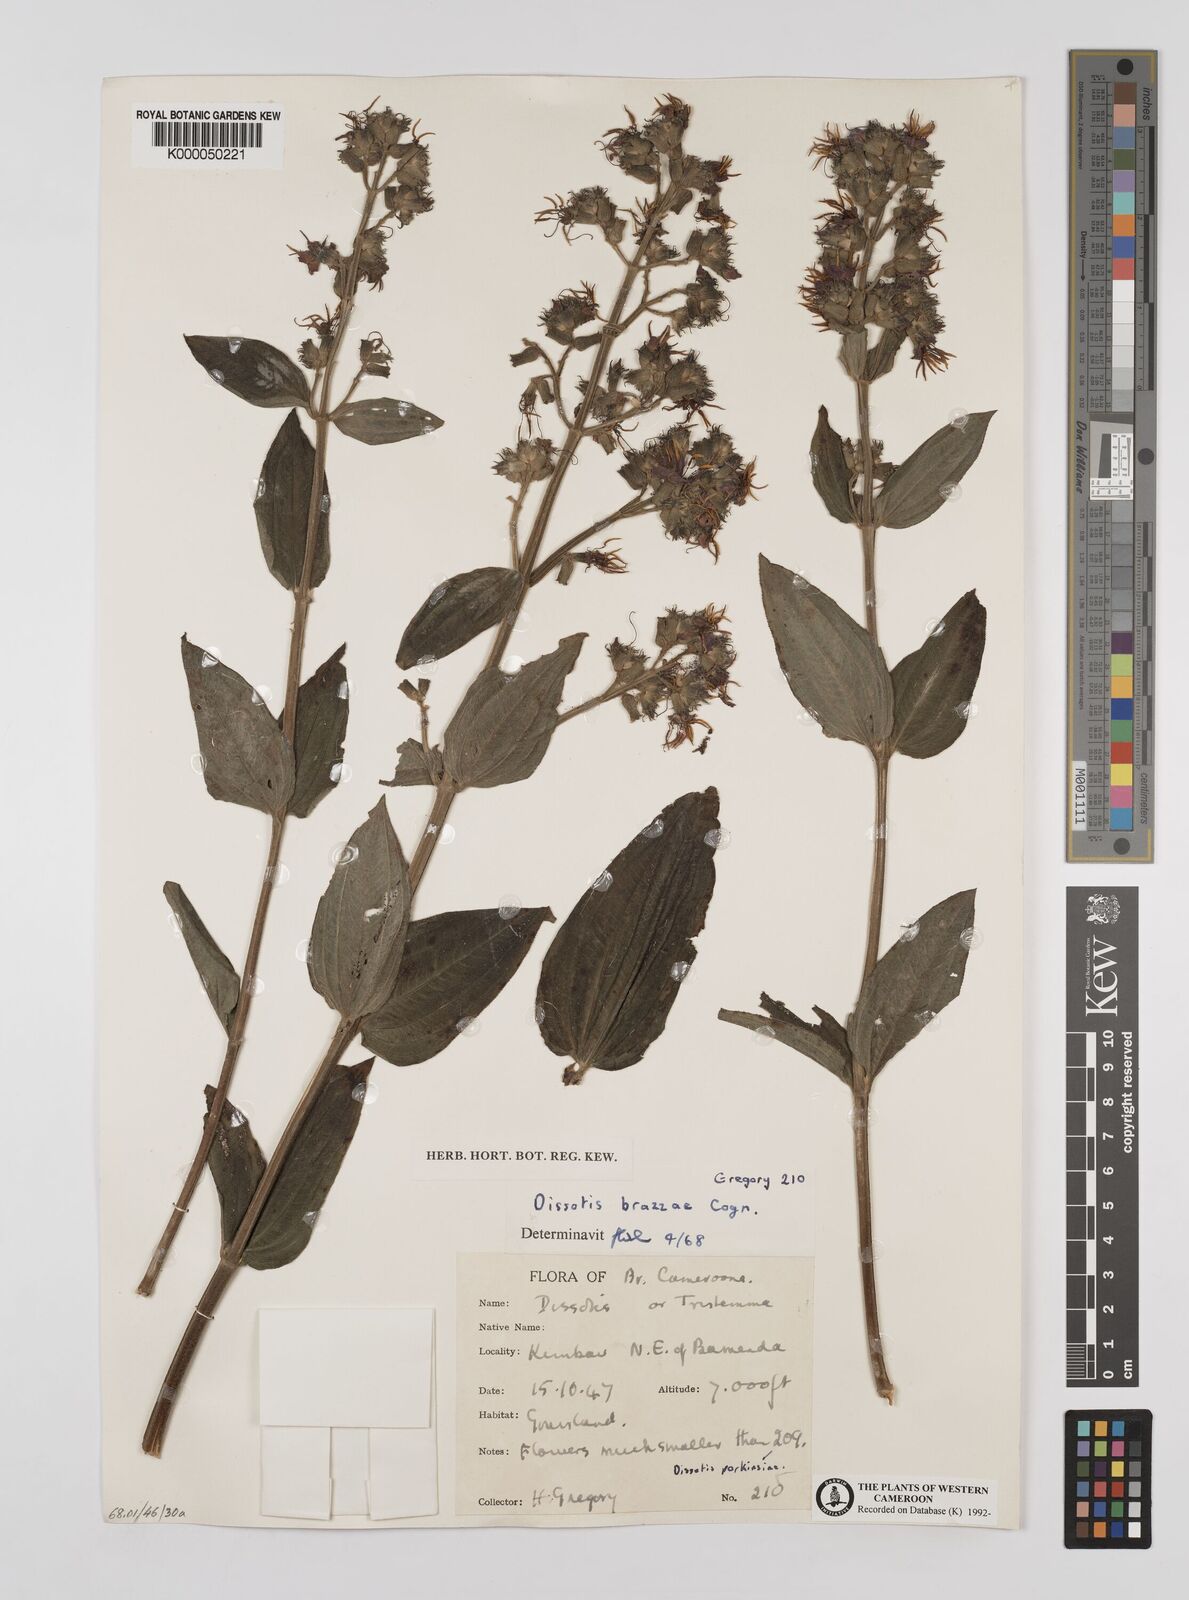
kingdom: Plantae
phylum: Tracheophyta
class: Magnoliopsida
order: Myrtales
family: Melastomataceae
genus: Dupineta
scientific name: Dupineta brazzae
